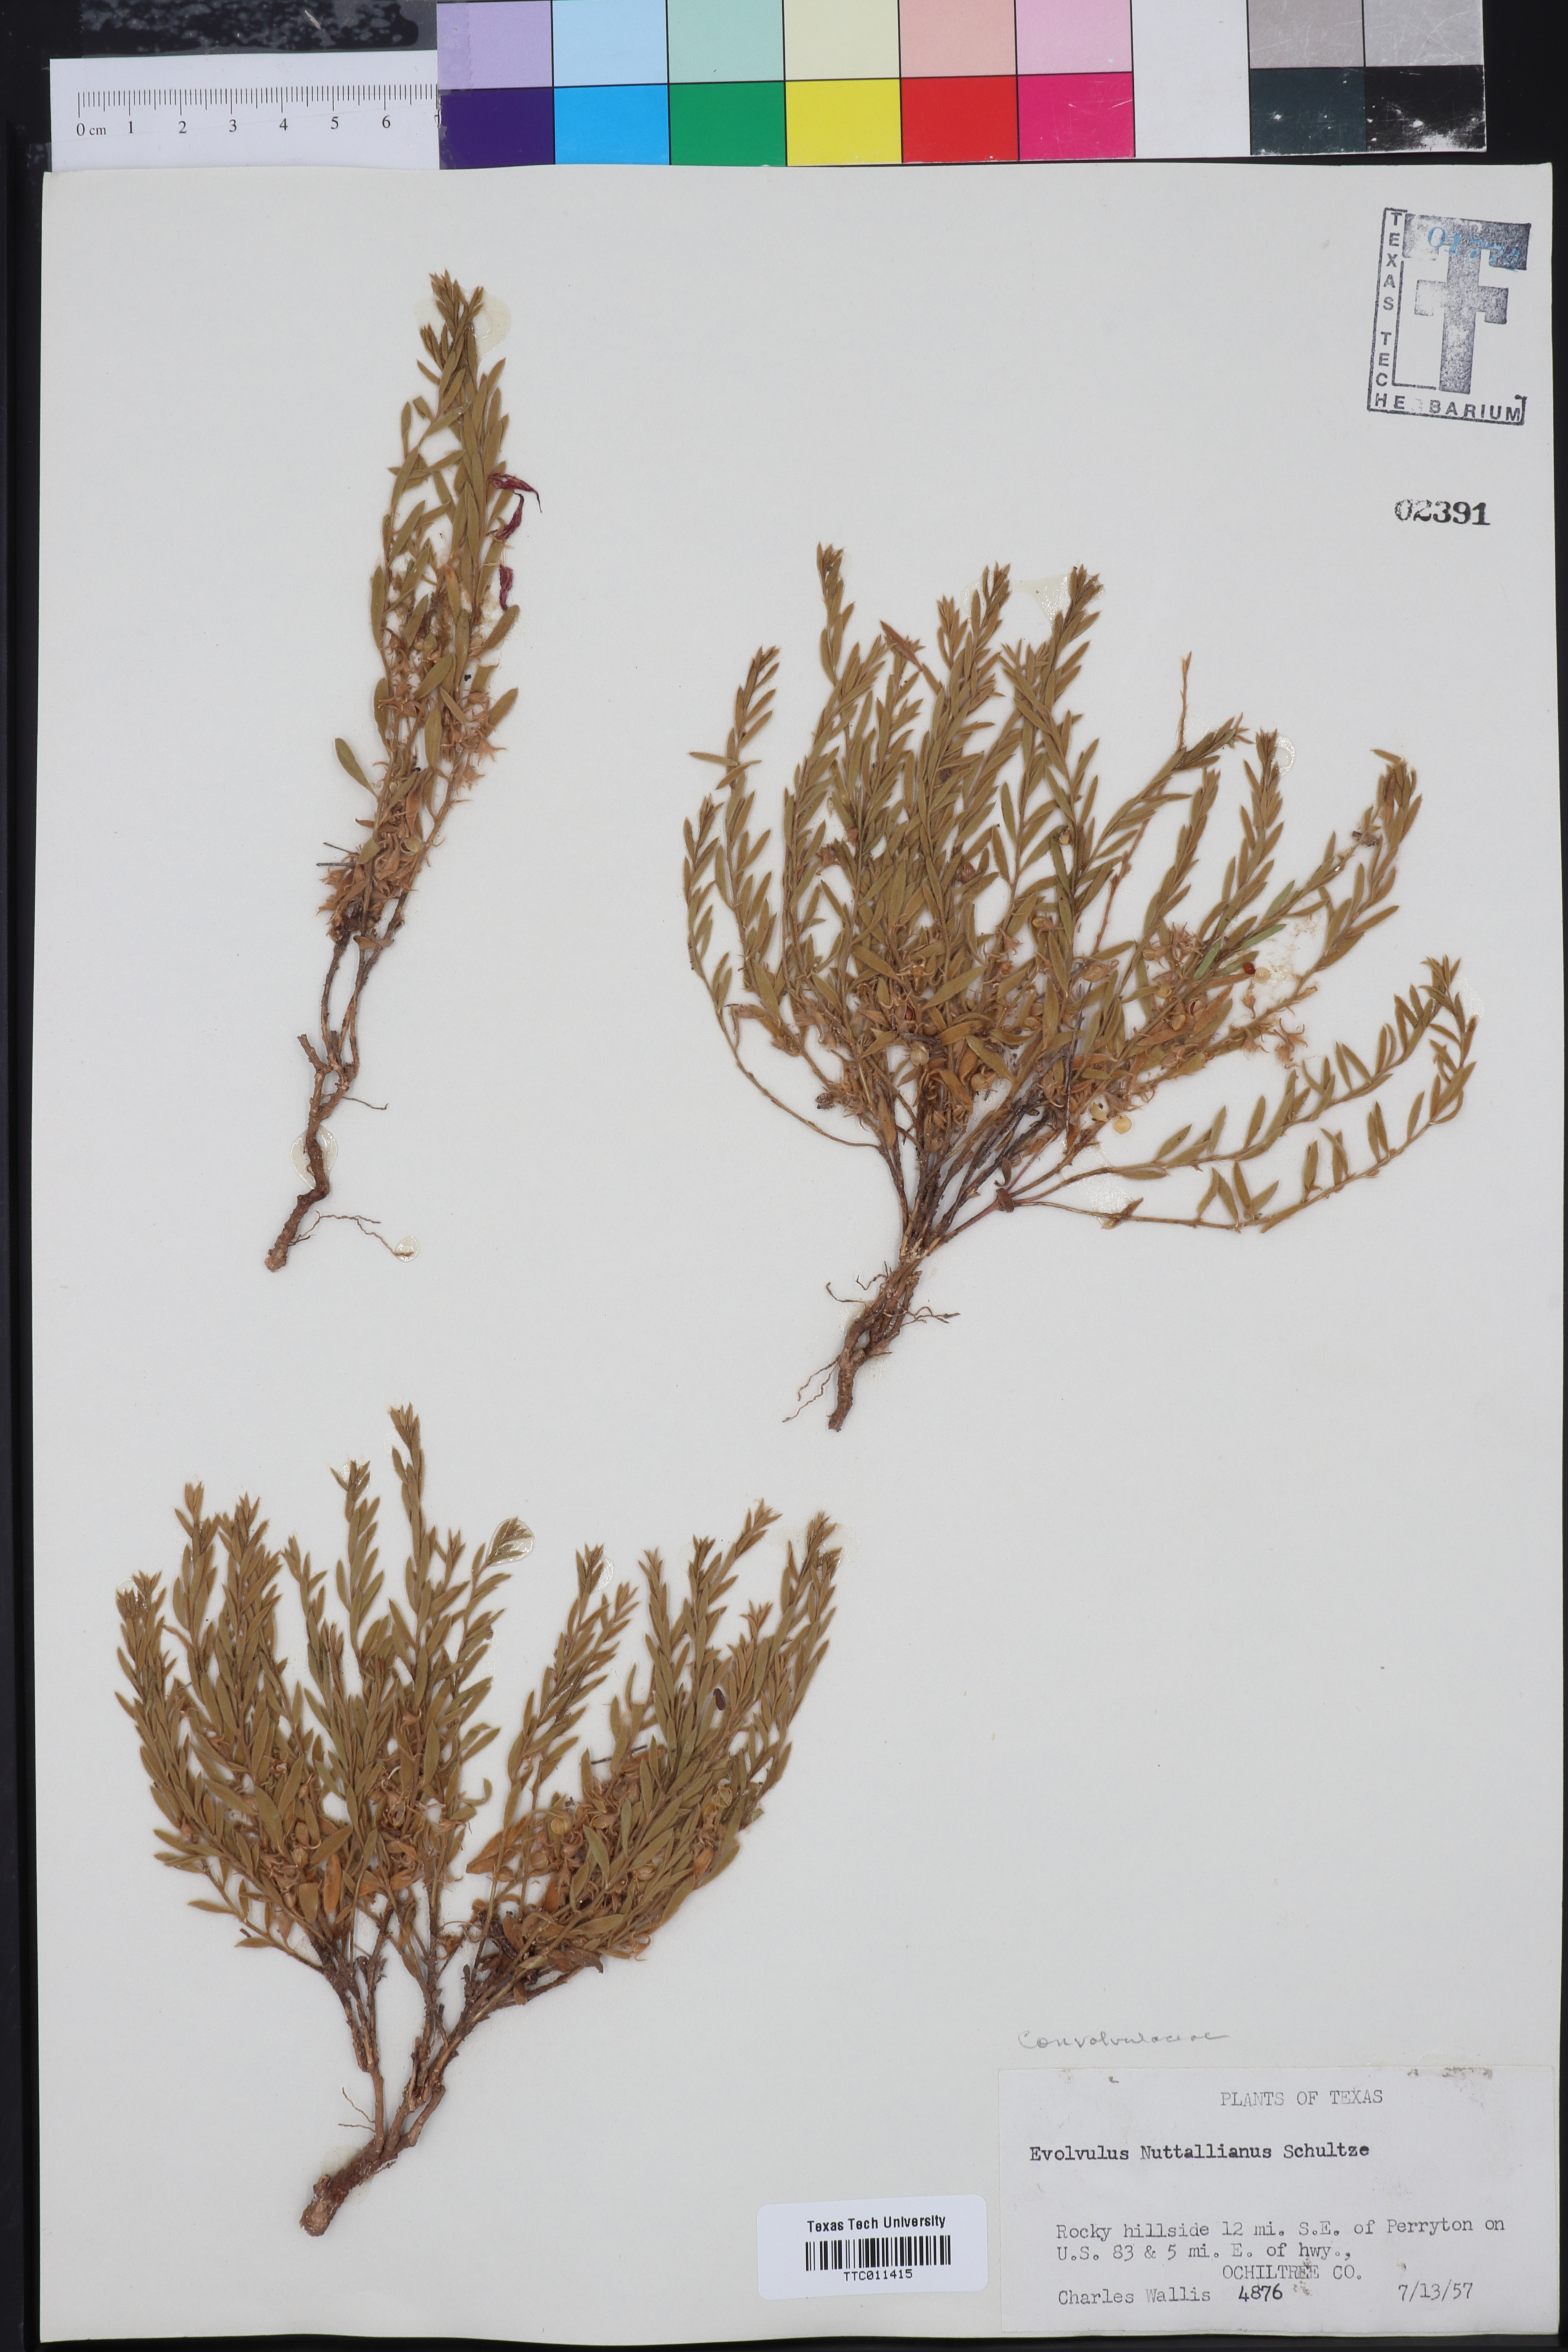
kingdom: Plantae
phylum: Tracheophyta
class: Magnoliopsida
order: Solanales
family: Convolvulaceae
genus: Evolvulus
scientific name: Evolvulus nuttallianus
